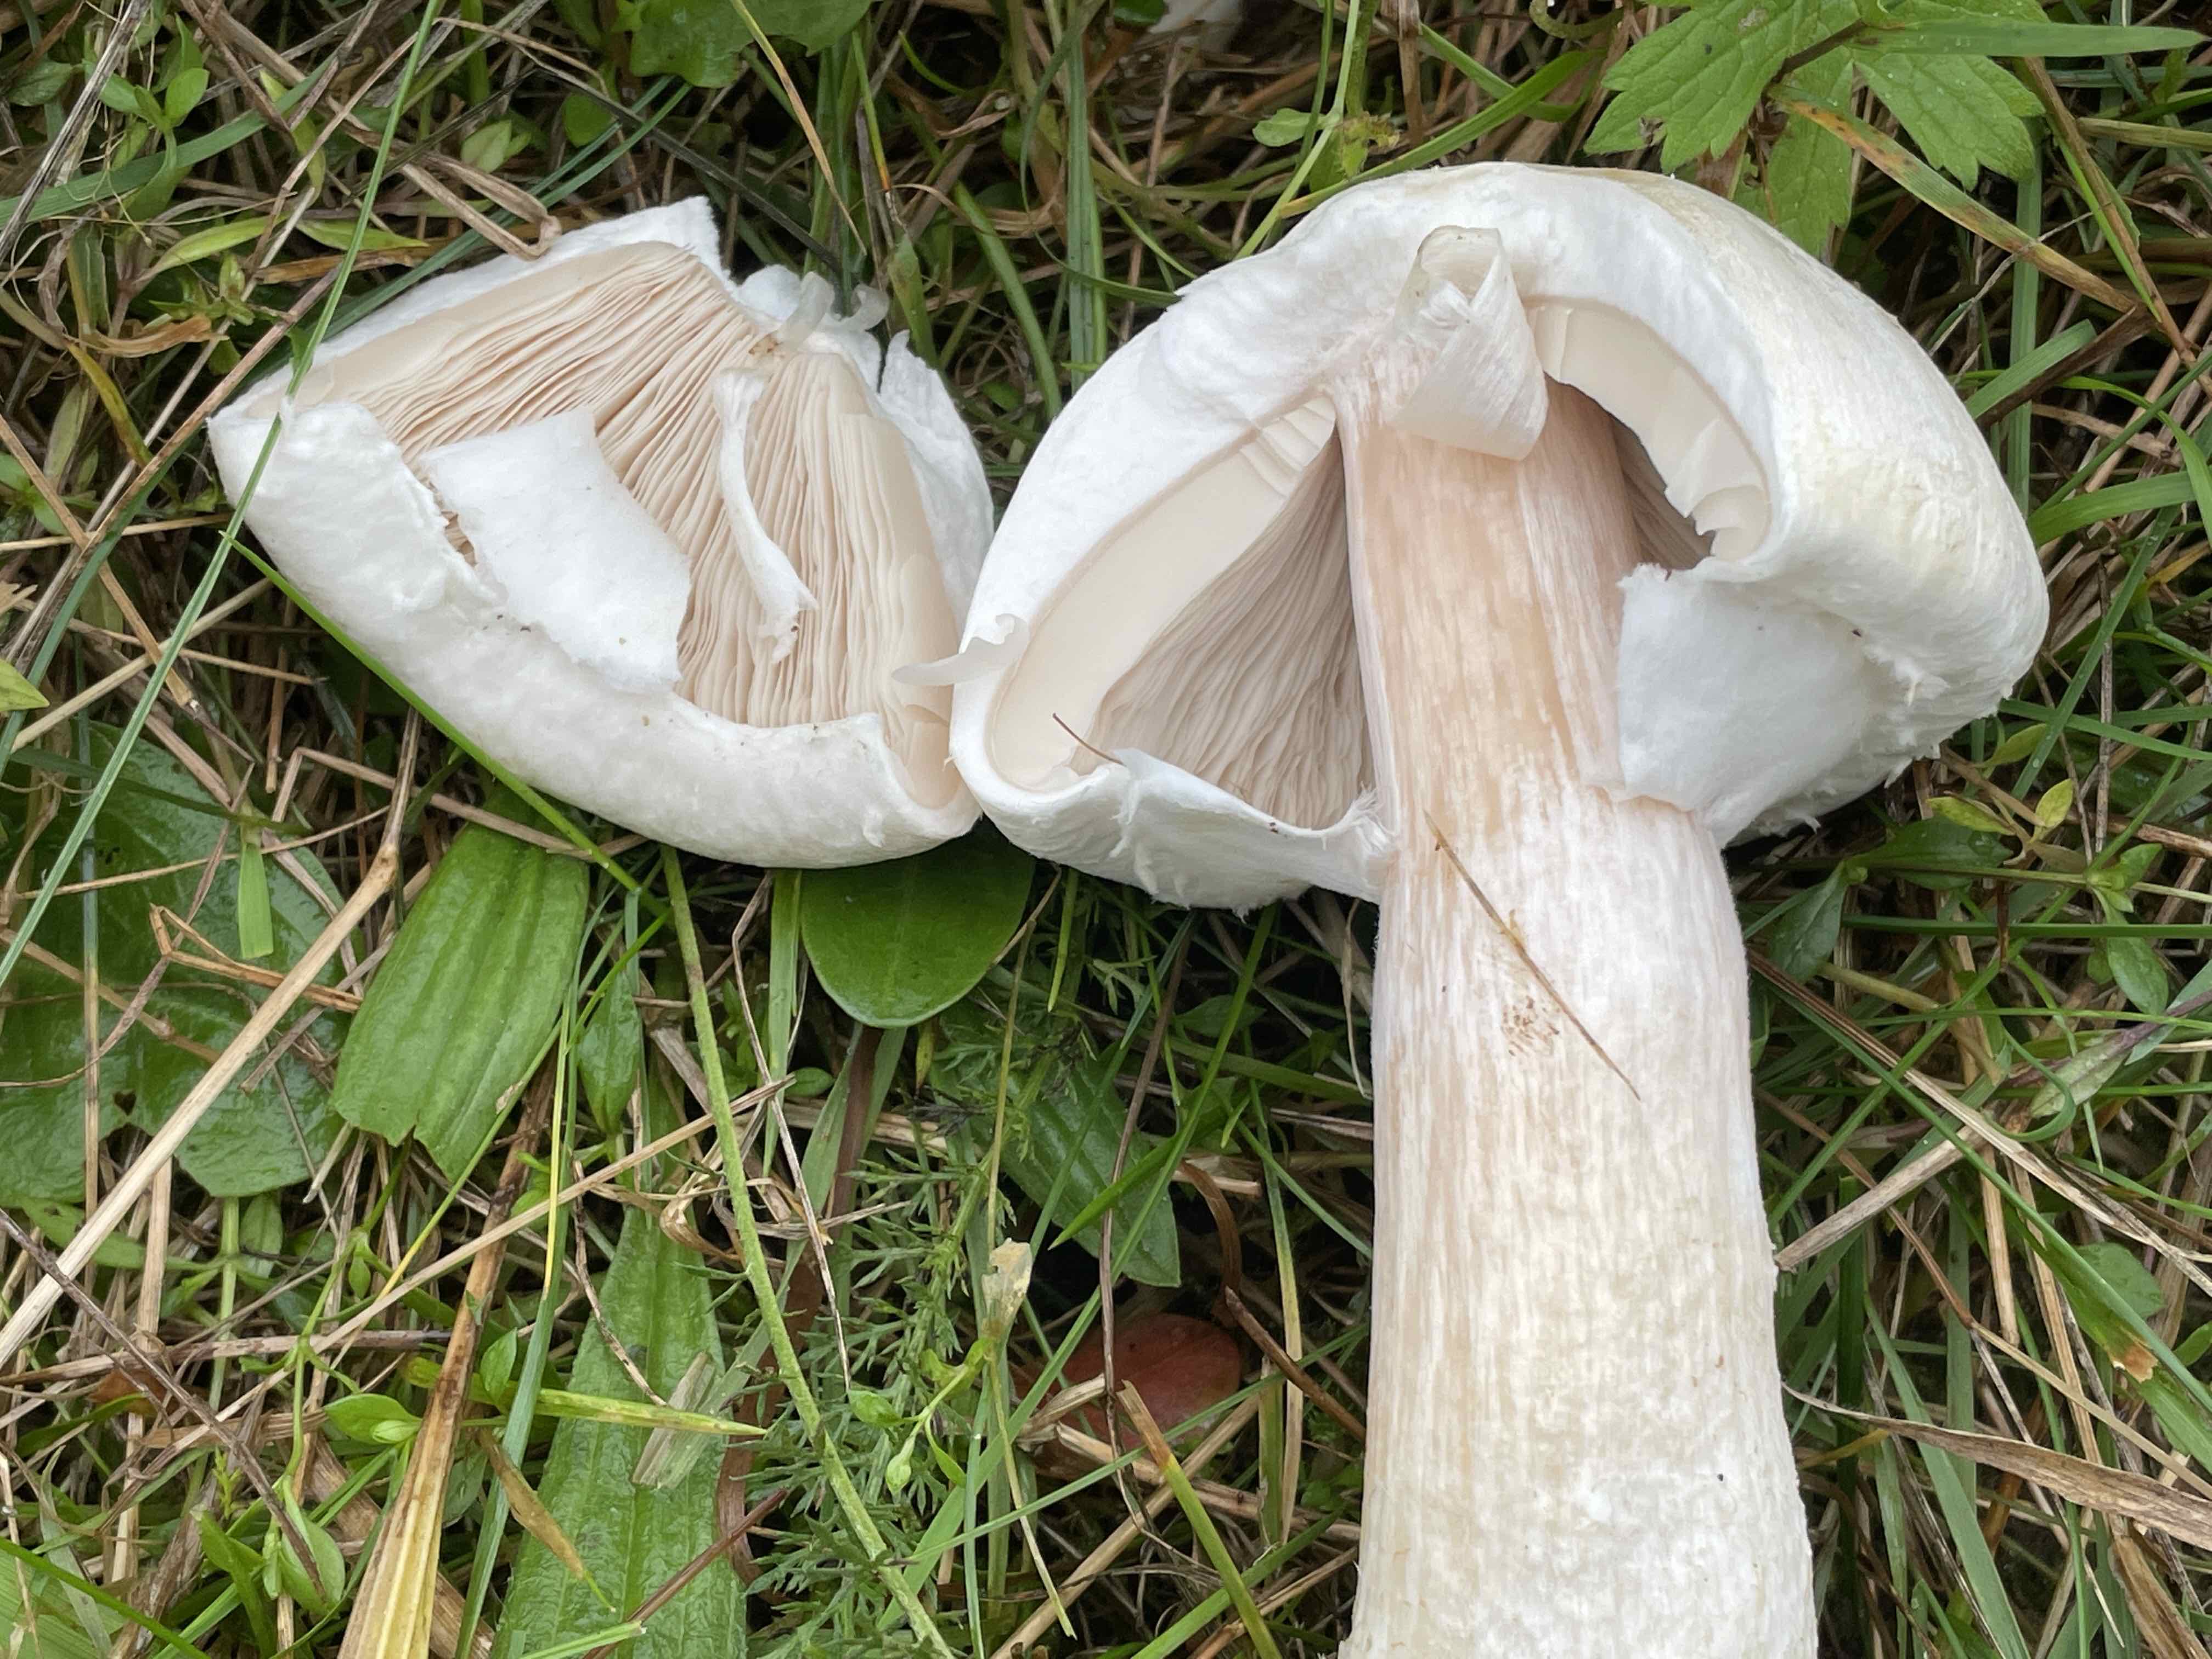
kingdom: Fungi
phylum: Basidiomycota
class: Agaricomycetes
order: Agaricales
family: Agaricaceae
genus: Agaricus
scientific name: Agaricus
